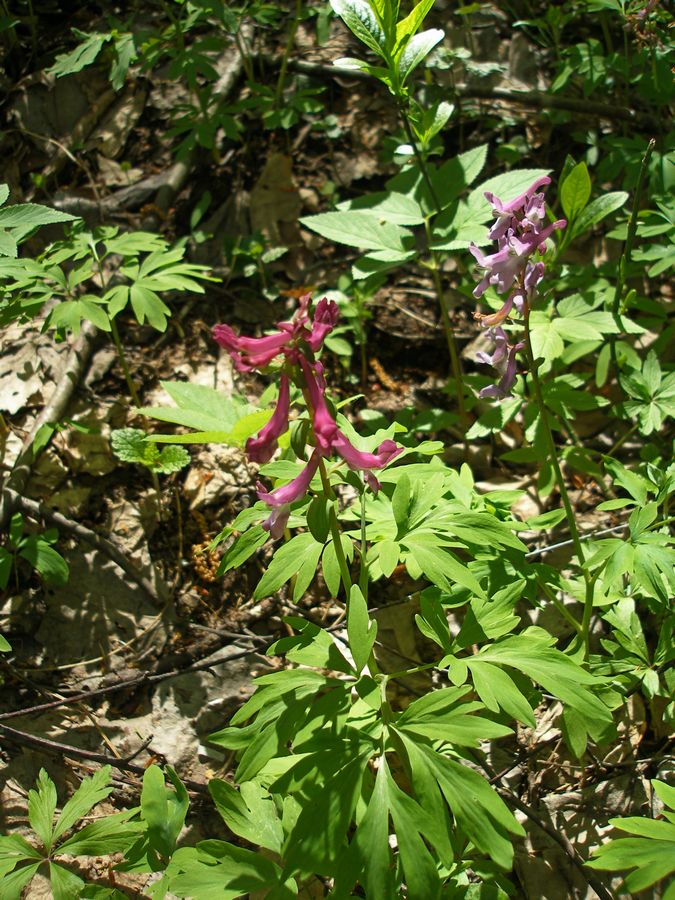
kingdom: Plantae
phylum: Tracheophyta
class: Magnoliopsida
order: Ranunculales
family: Papaveraceae
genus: Corydalis
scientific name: Corydalis cava
